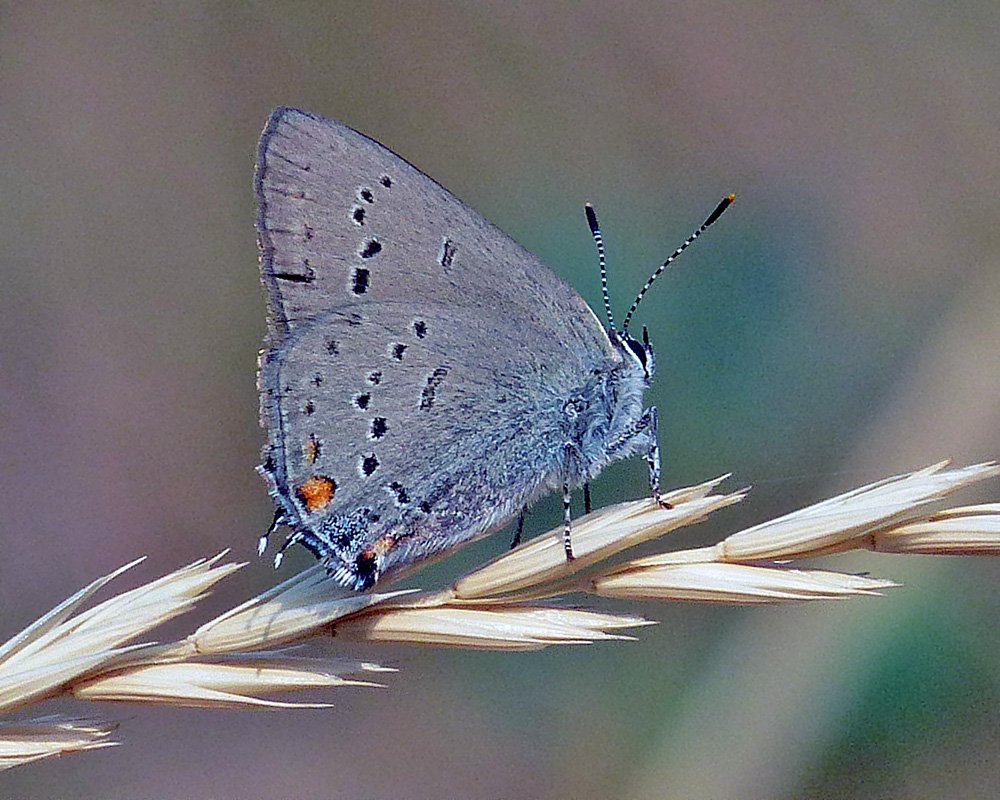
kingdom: Animalia
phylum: Arthropoda
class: Insecta
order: Lepidoptera
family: Lycaenidae
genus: Strymon
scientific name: Strymon sylvinus
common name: Sylvan Hairstreak
